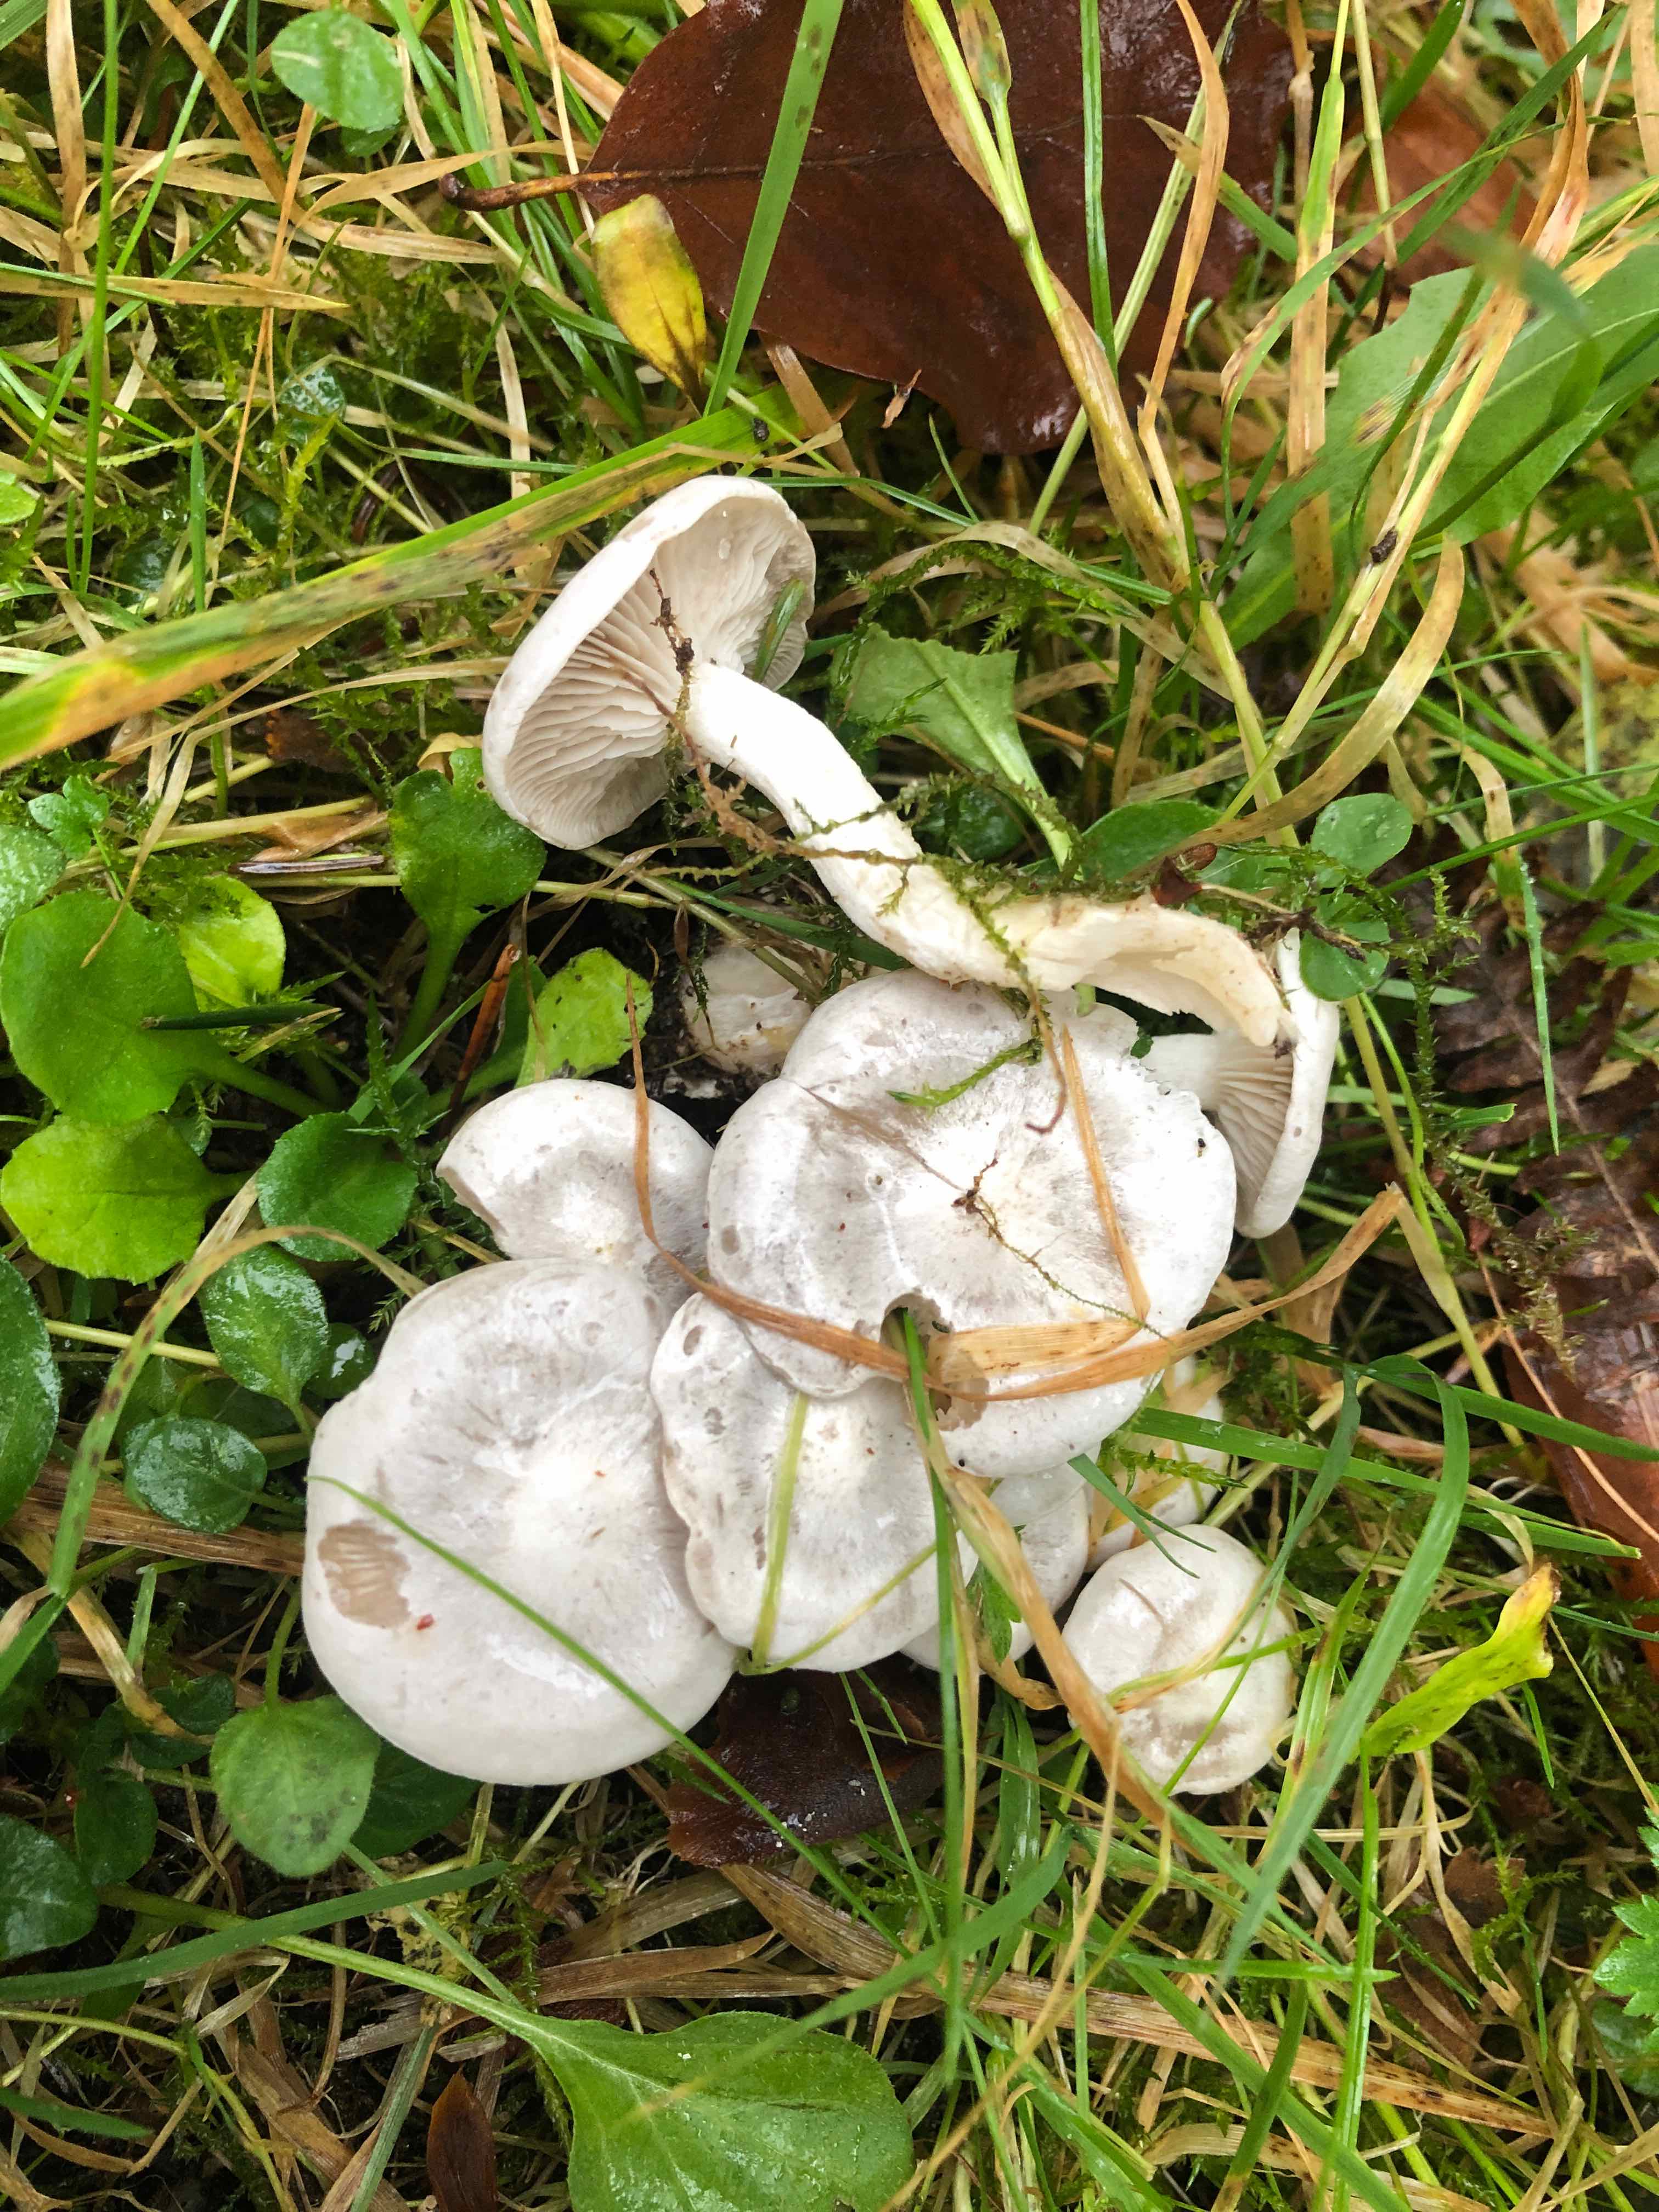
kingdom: Fungi
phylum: Basidiomycota
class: Agaricomycetes
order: Agaricales
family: Tricholomataceae
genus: Leucocybe
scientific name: Leucocybe connata
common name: knippe-tragthat
